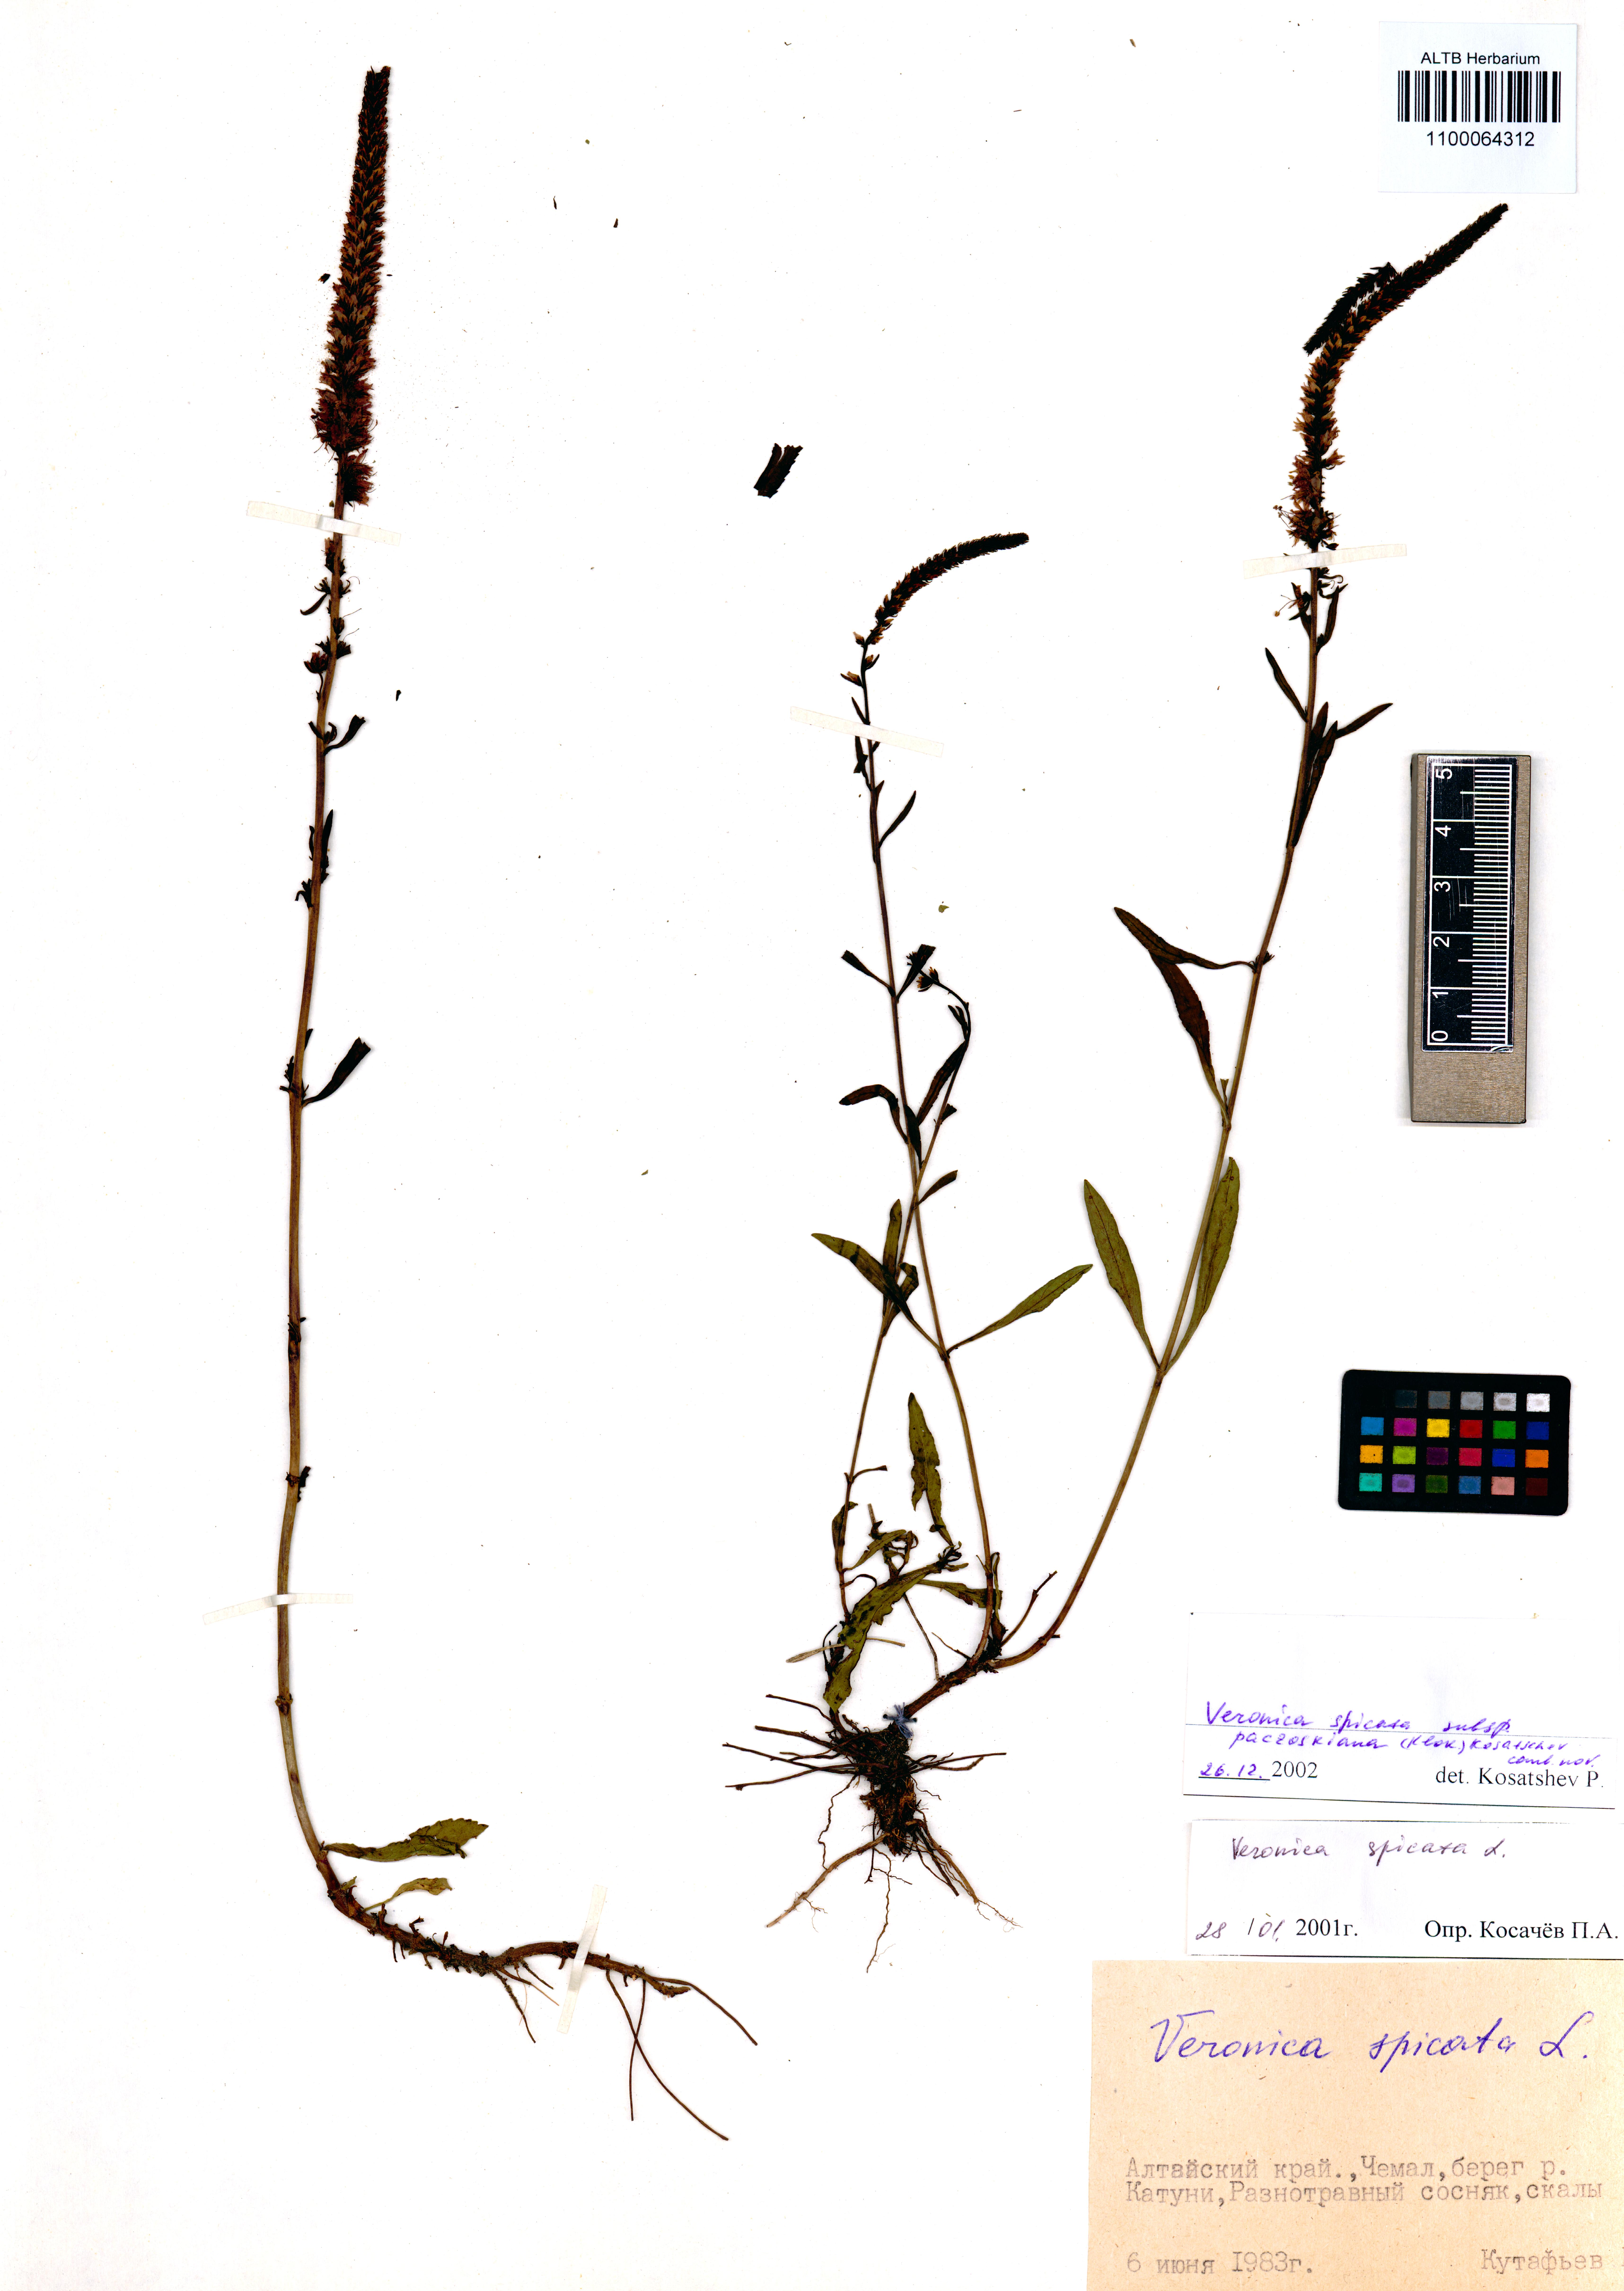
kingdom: Plantae
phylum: Tracheophyta
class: Magnoliopsida
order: Lamiales
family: Plantaginaceae
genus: Veronica
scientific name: Veronica spicata
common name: Spiked speedwell
